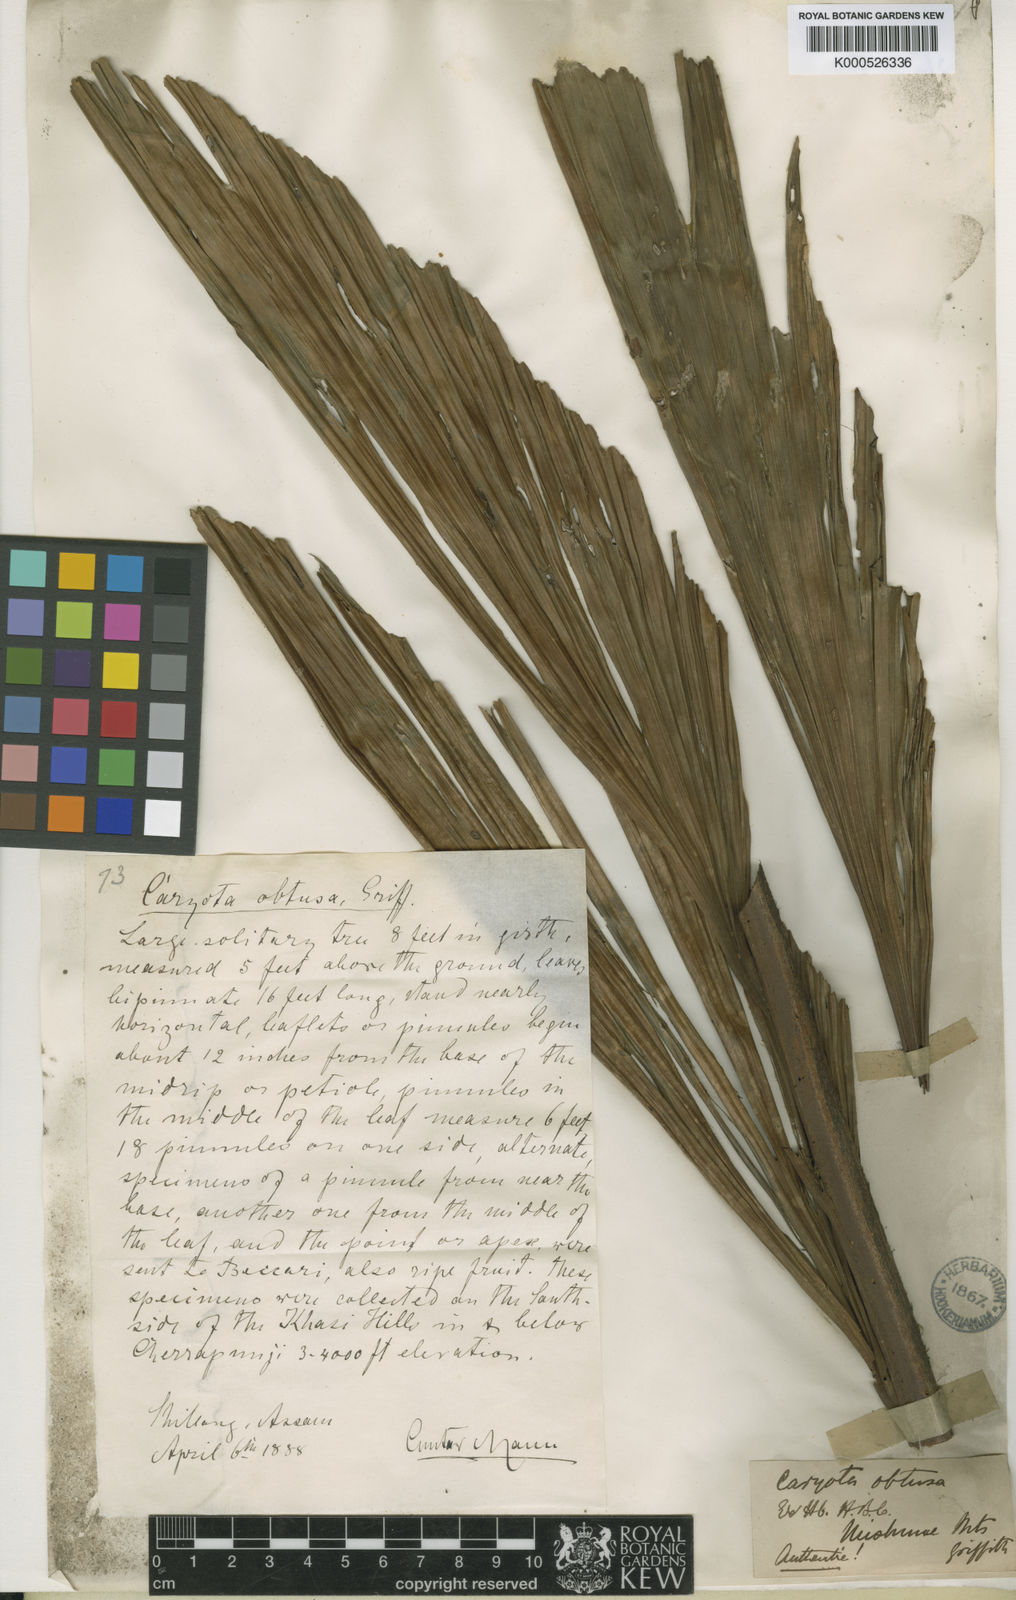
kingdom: Plantae
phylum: Tracheophyta
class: Liliopsida
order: Arecales
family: Arecaceae
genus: Caryota
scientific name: Caryota obtusa
